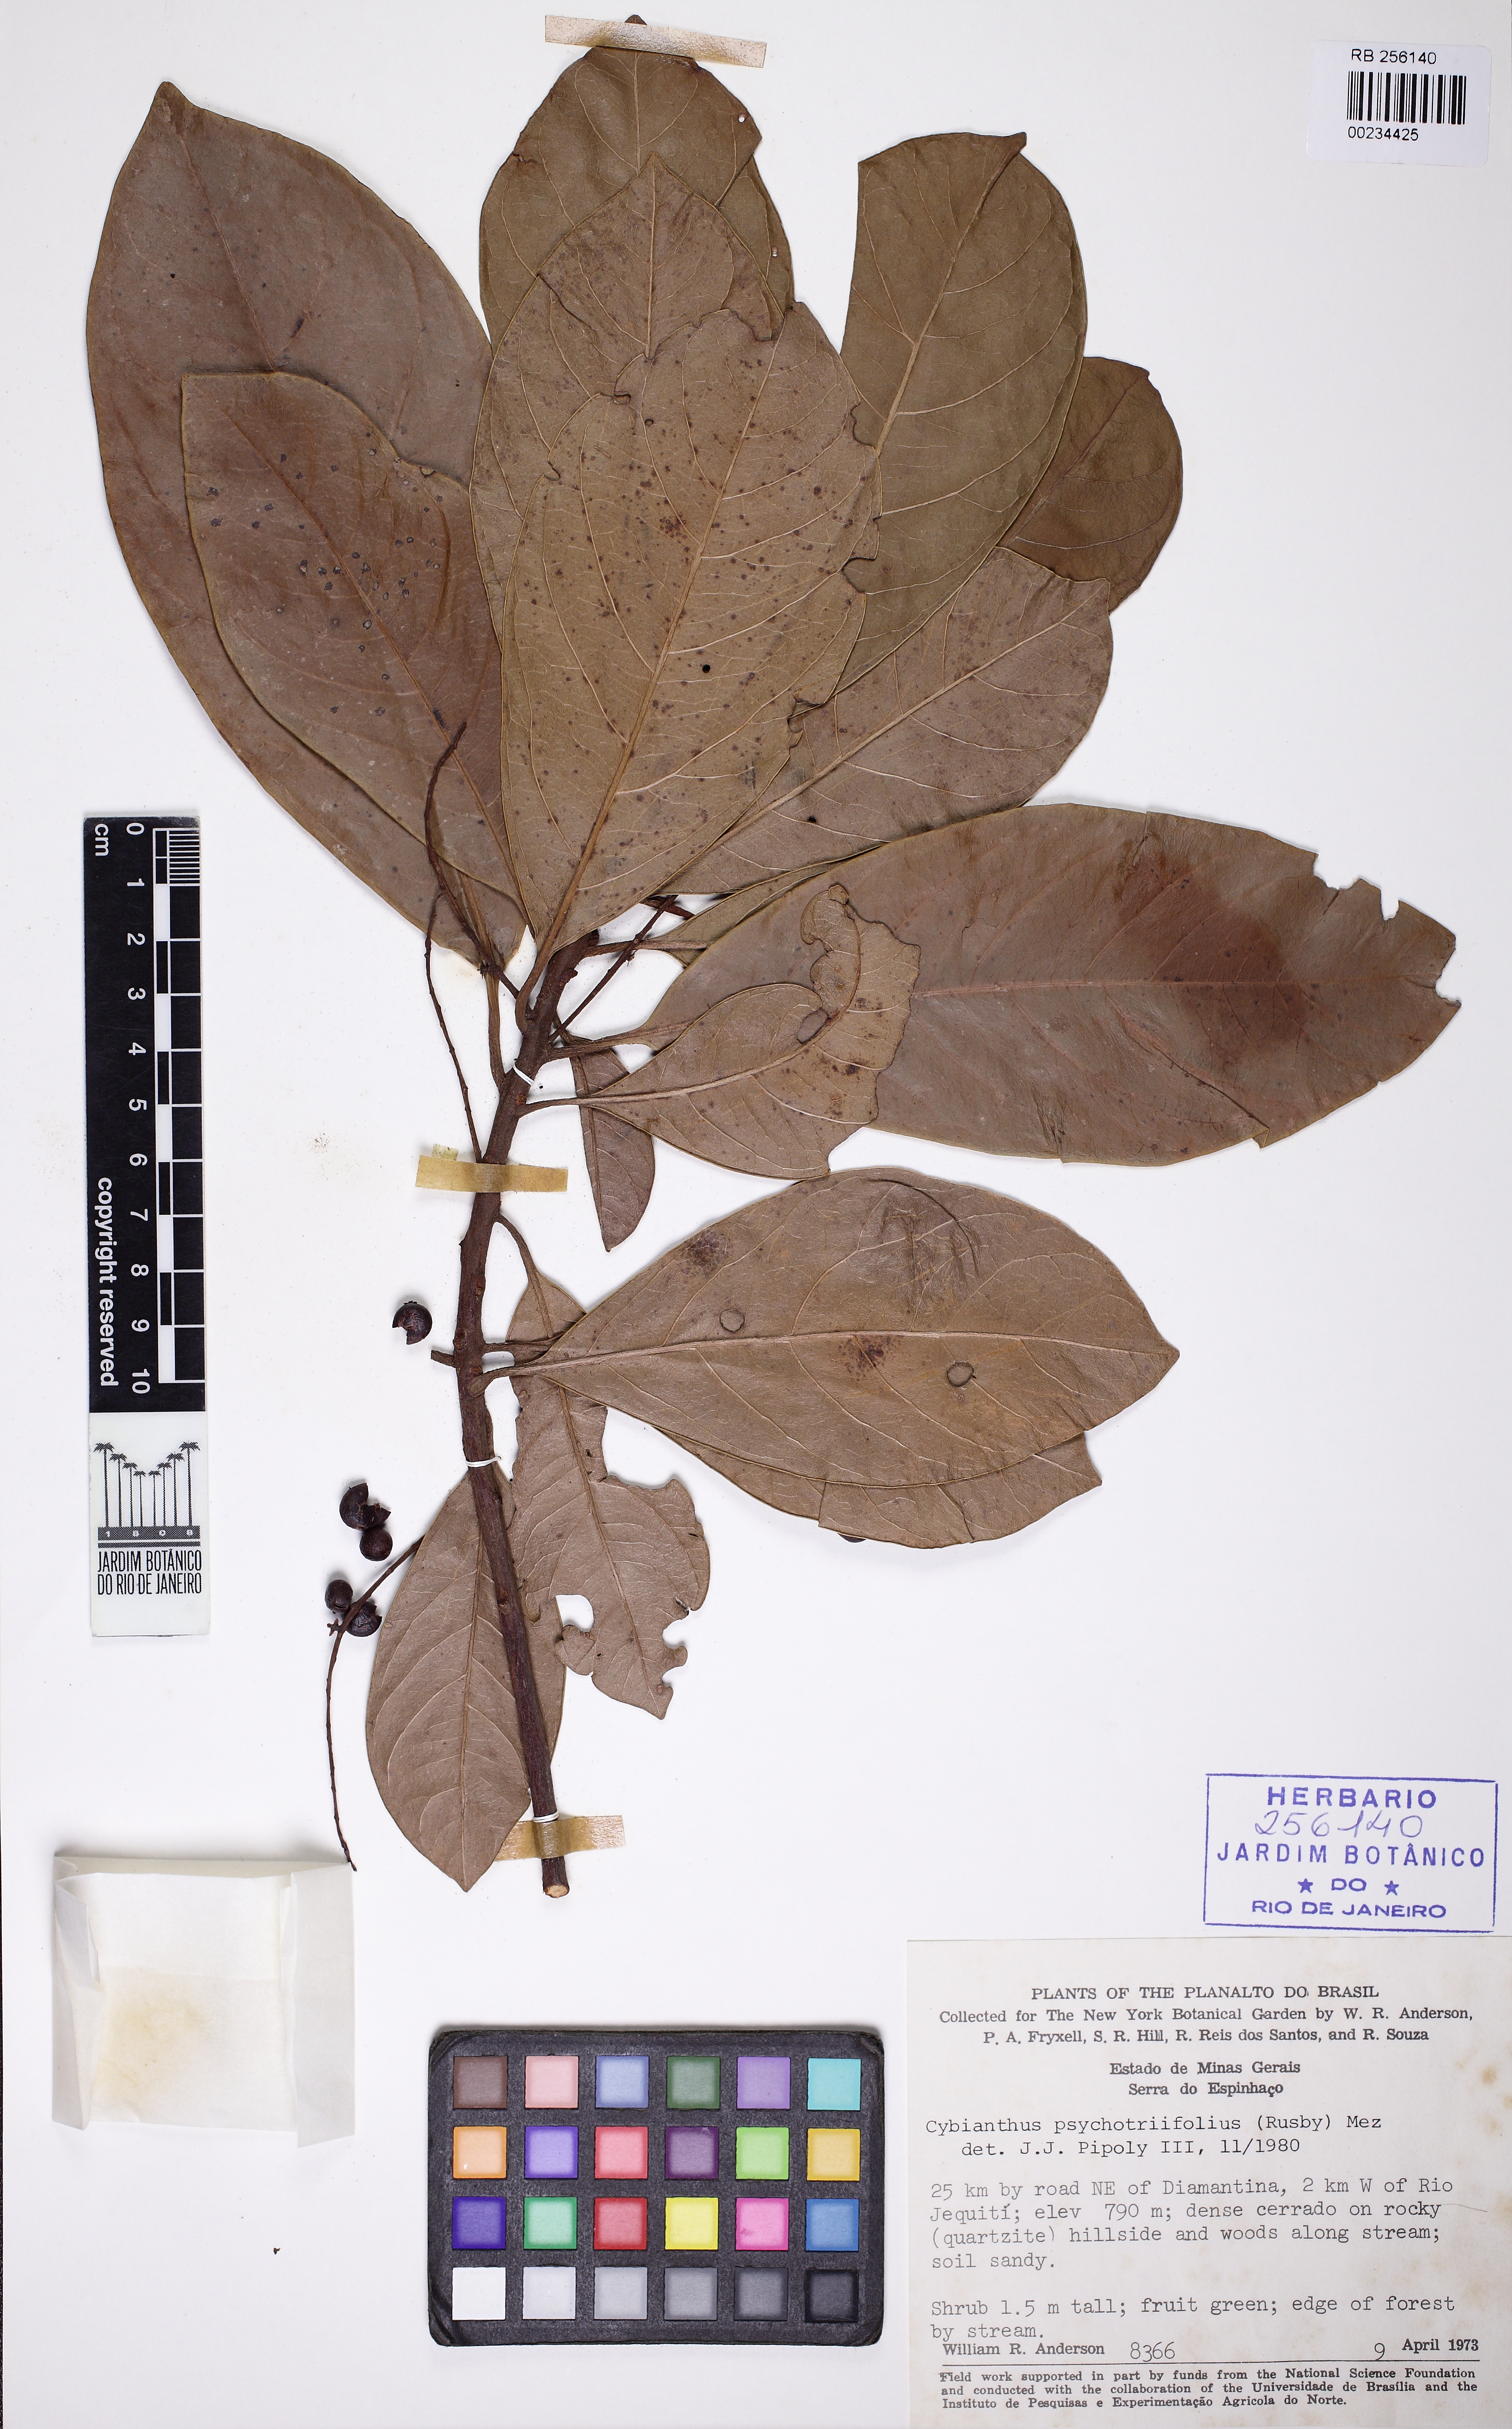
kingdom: Plantae
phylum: Tracheophyta
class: Magnoliopsida
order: Ericales
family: Primulaceae
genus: Cybianthus
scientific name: Cybianthus psychotriifolius
